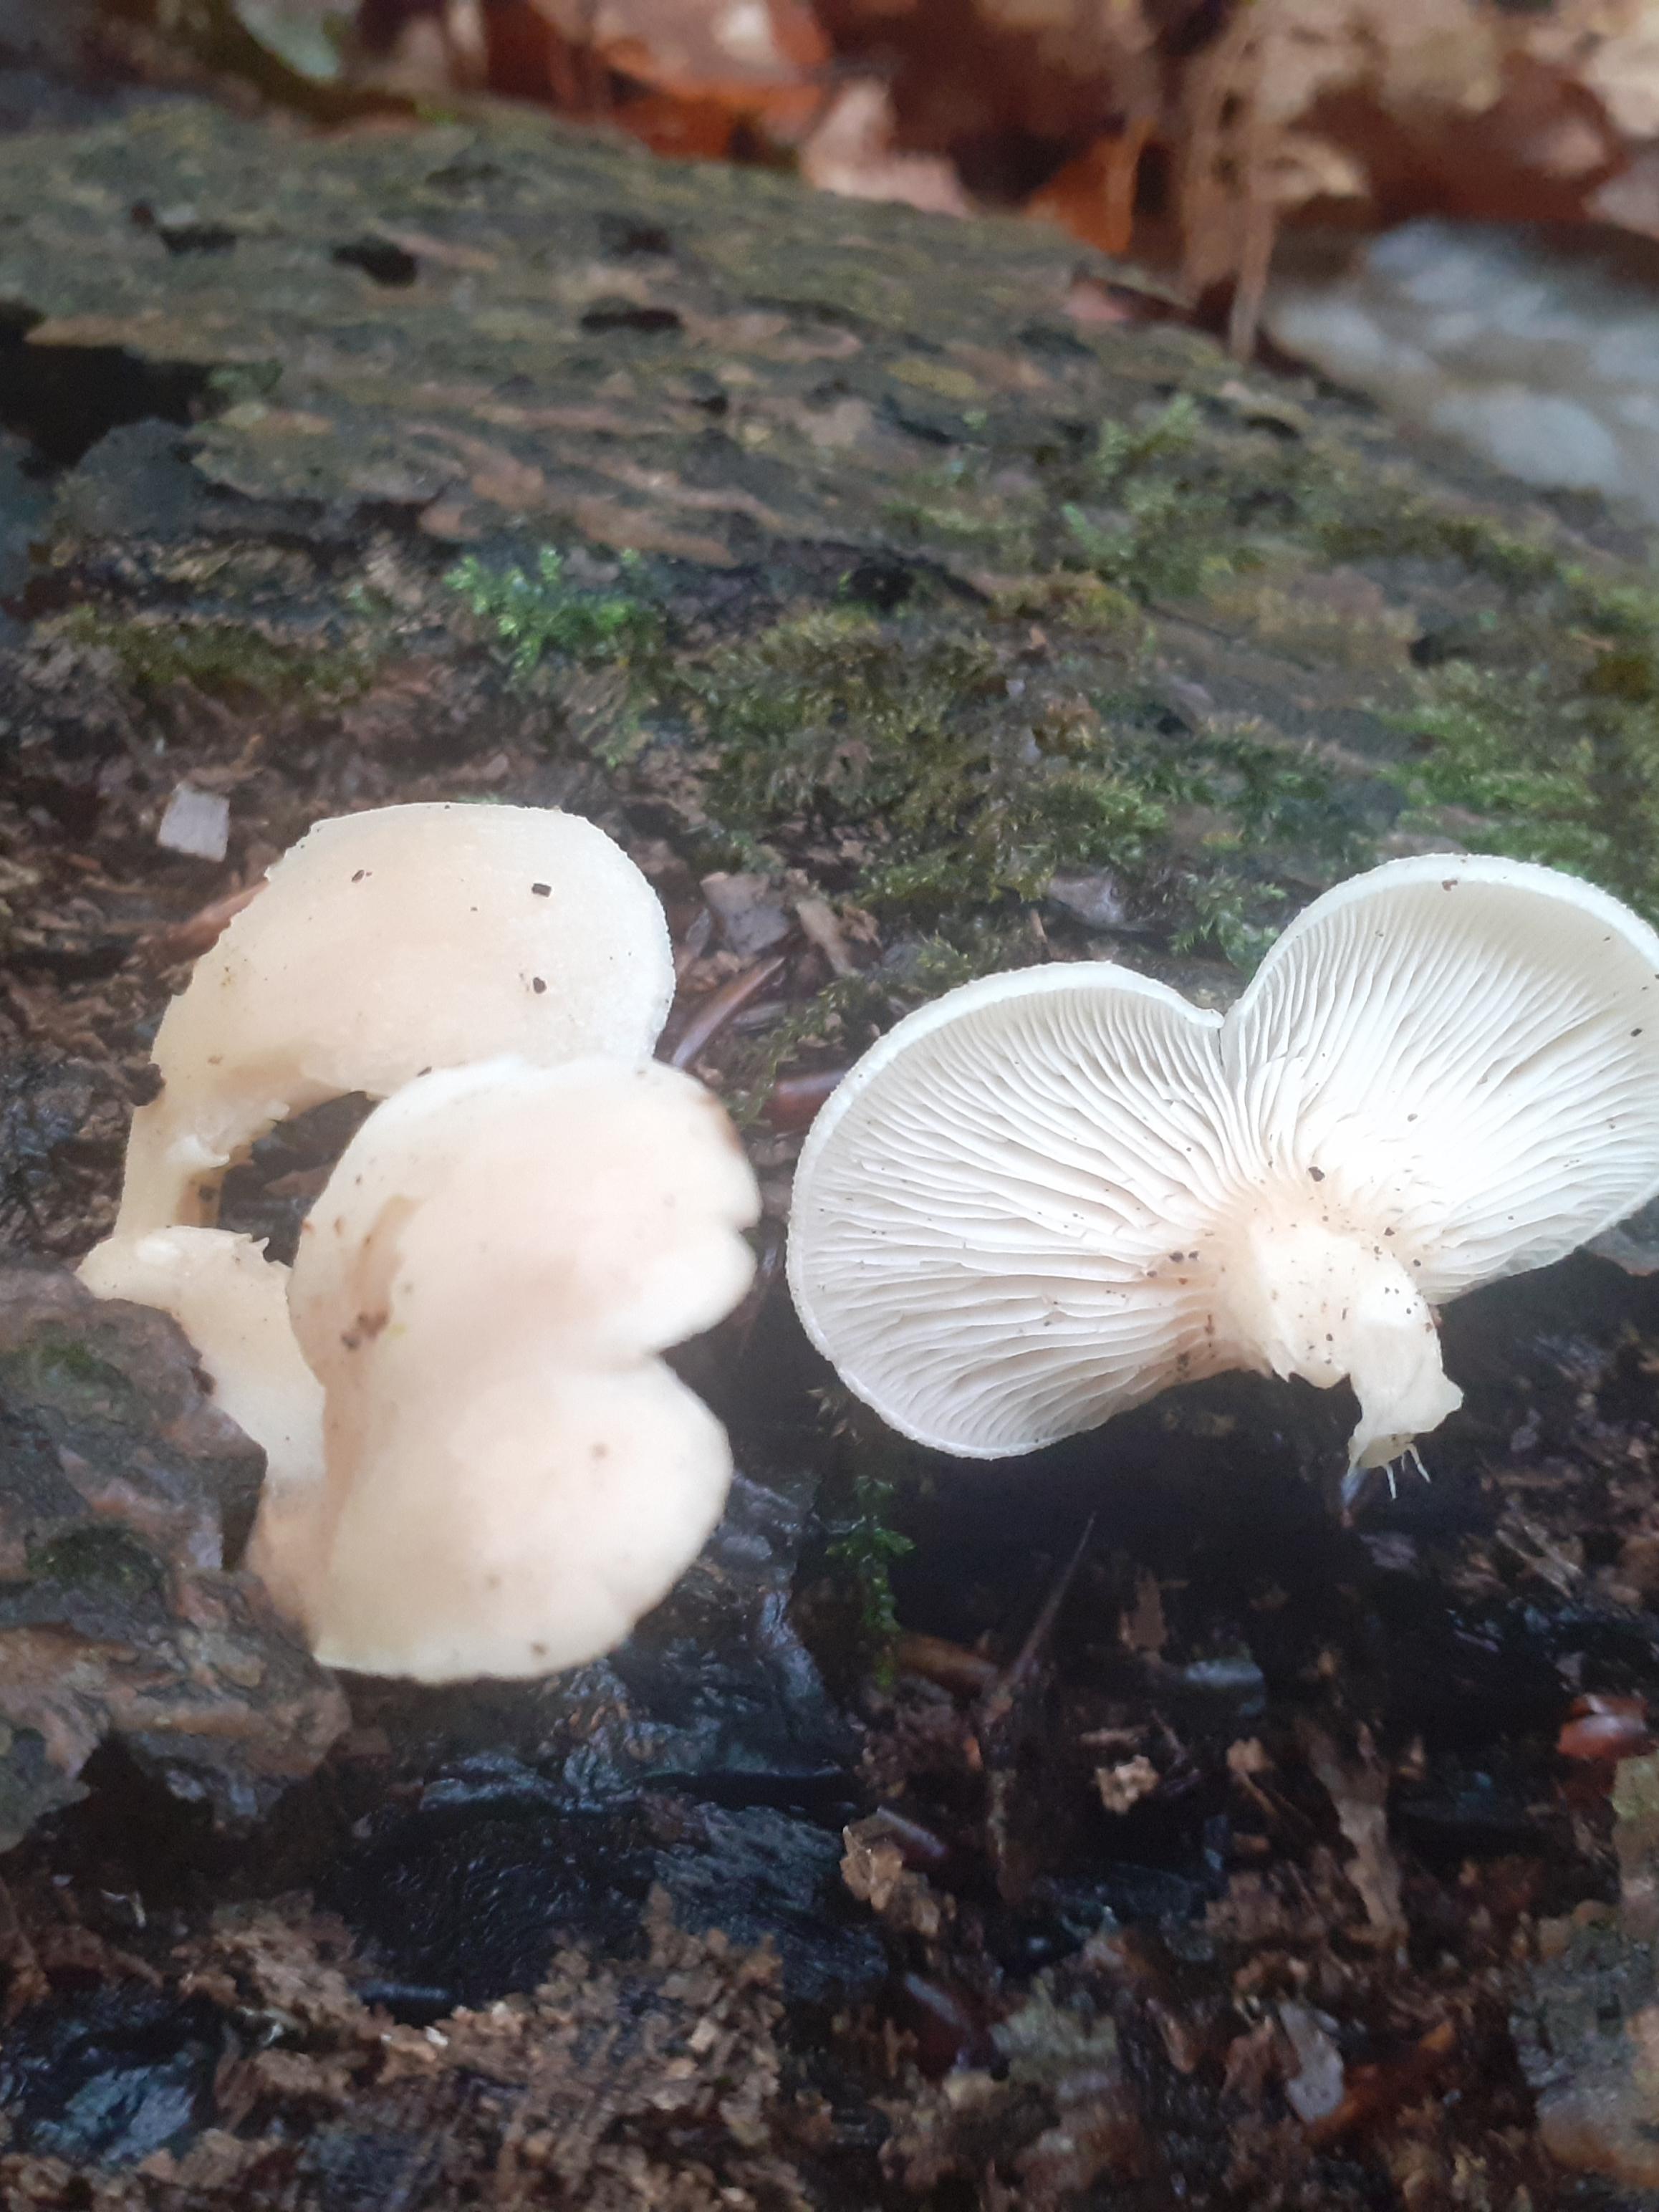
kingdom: Fungi
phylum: Basidiomycota
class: Agaricomycetes
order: Agaricales
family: Pleurotaceae
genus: Hohenbuehelia
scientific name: Hohenbuehelia auriscalpium
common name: spatel-filthat
